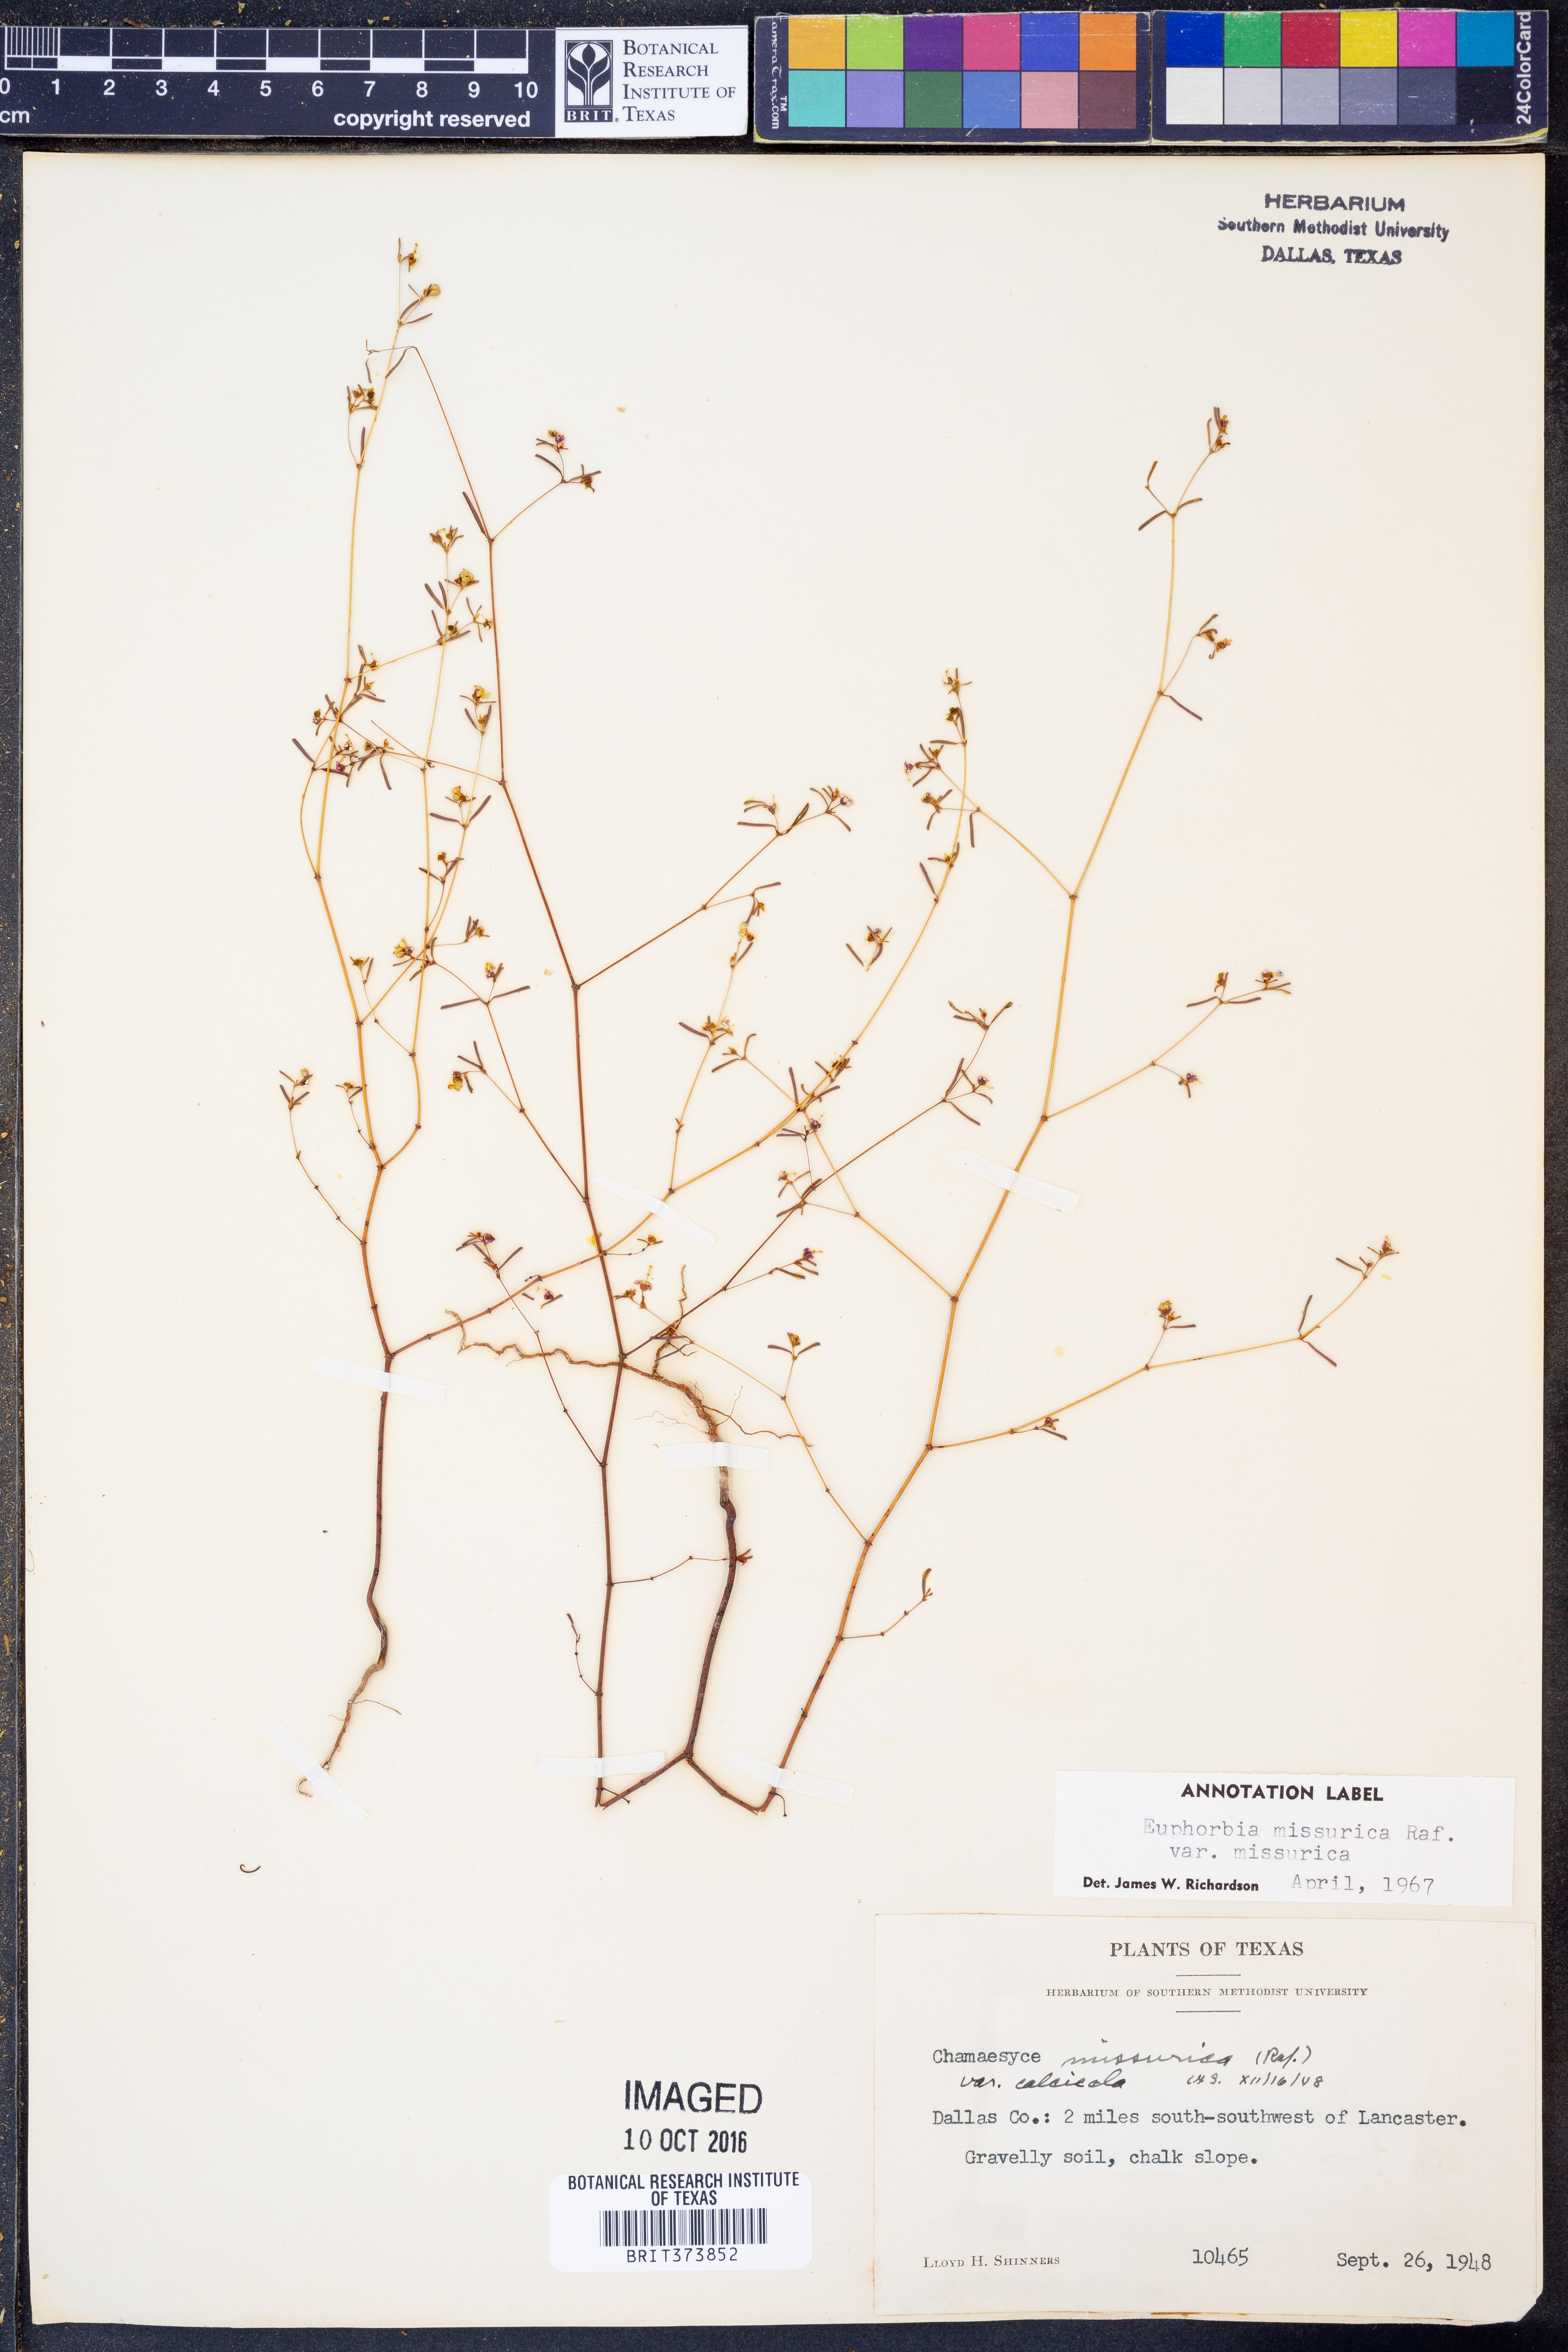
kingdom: Plantae
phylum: Tracheophyta
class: Magnoliopsida
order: Malpighiales
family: Euphorbiaceae
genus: Euphorbia
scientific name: Euphorbia missurica
